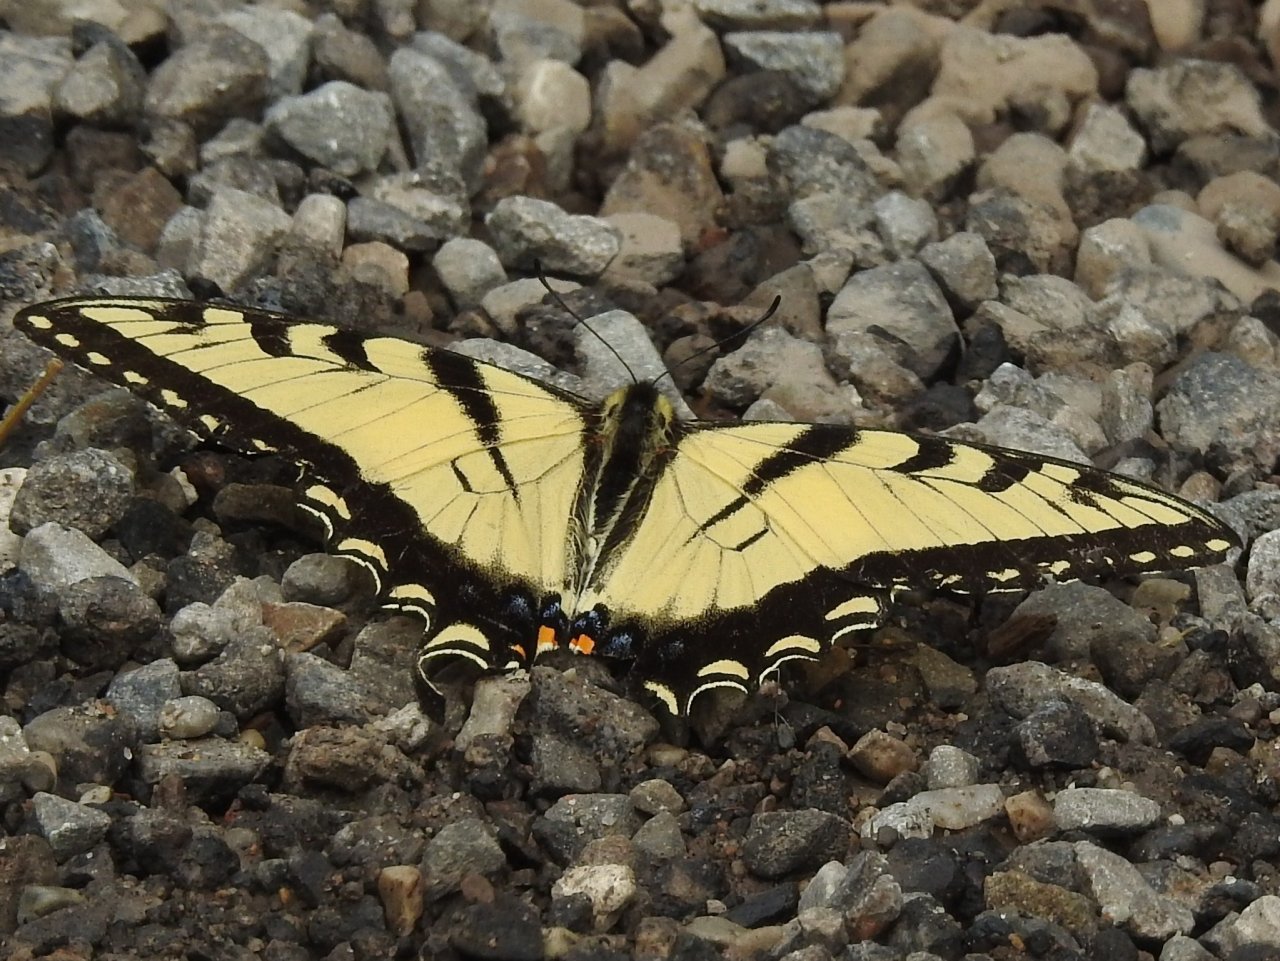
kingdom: Animalia
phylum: Arthropoda
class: Insecta
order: Lepidoptera
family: Papilionidae
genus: Pterourus
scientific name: Pterourus glaucus
